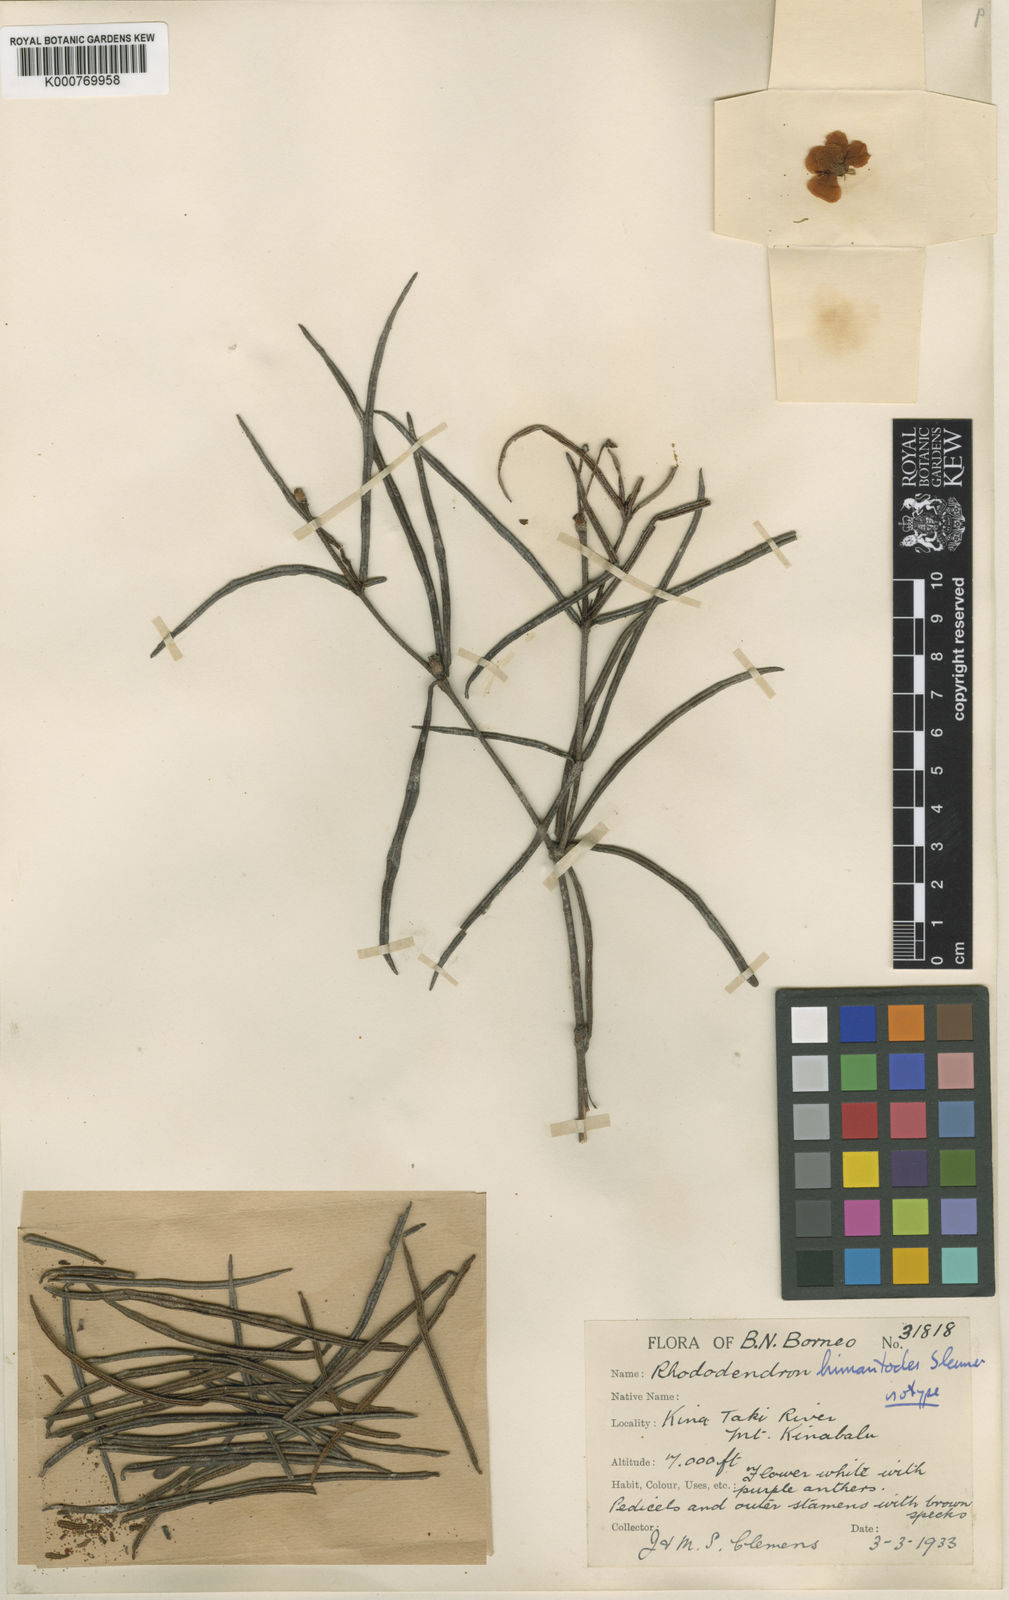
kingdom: Plantae
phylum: Tracheophyta
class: Magnoliopsida
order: Ericales
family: Ericaceae
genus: Rhododendron
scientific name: Rhododendron himantodes
